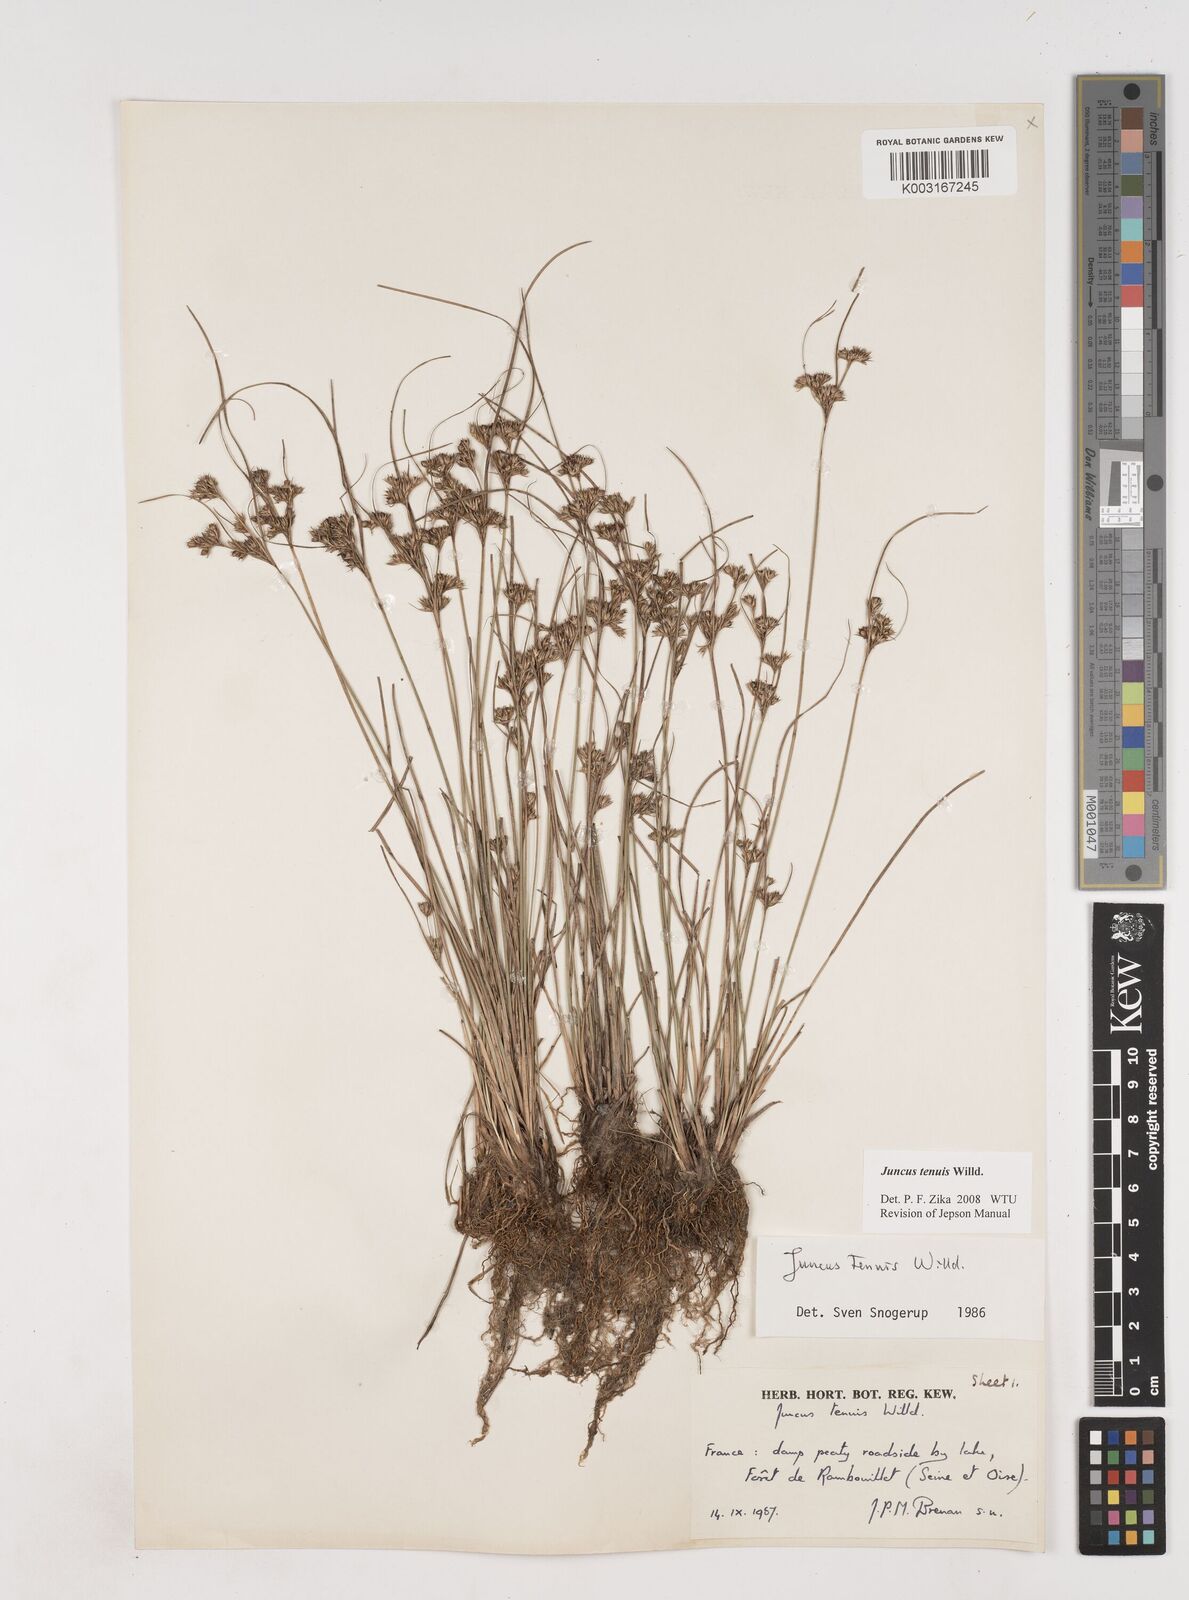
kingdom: Plantae
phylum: Tracheophyta
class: Liliopsida
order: Poales
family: Juncaceae
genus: Juncus
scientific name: Juncus tenuis
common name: Slender rush
